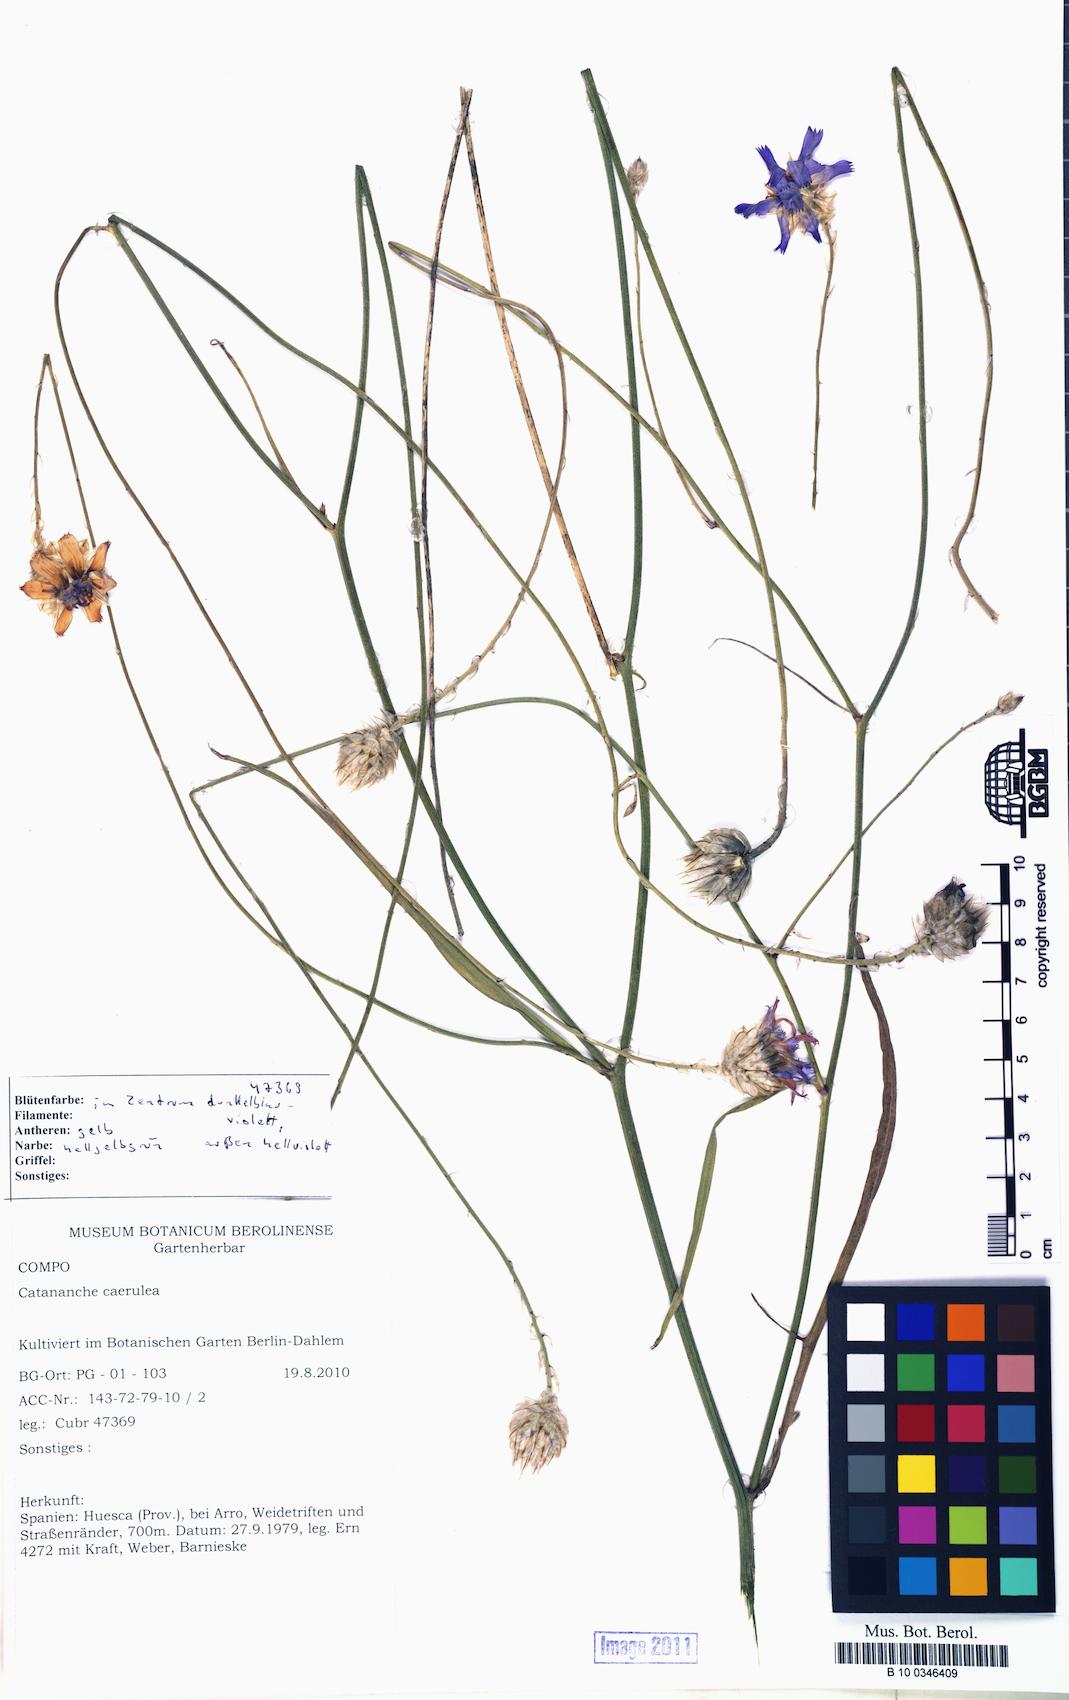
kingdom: Plantae
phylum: Tracheophyta
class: Magnoliopsida
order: Asterales
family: Asteraceae
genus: Catananche
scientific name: Catananche caerulea
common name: Blue cupidone
